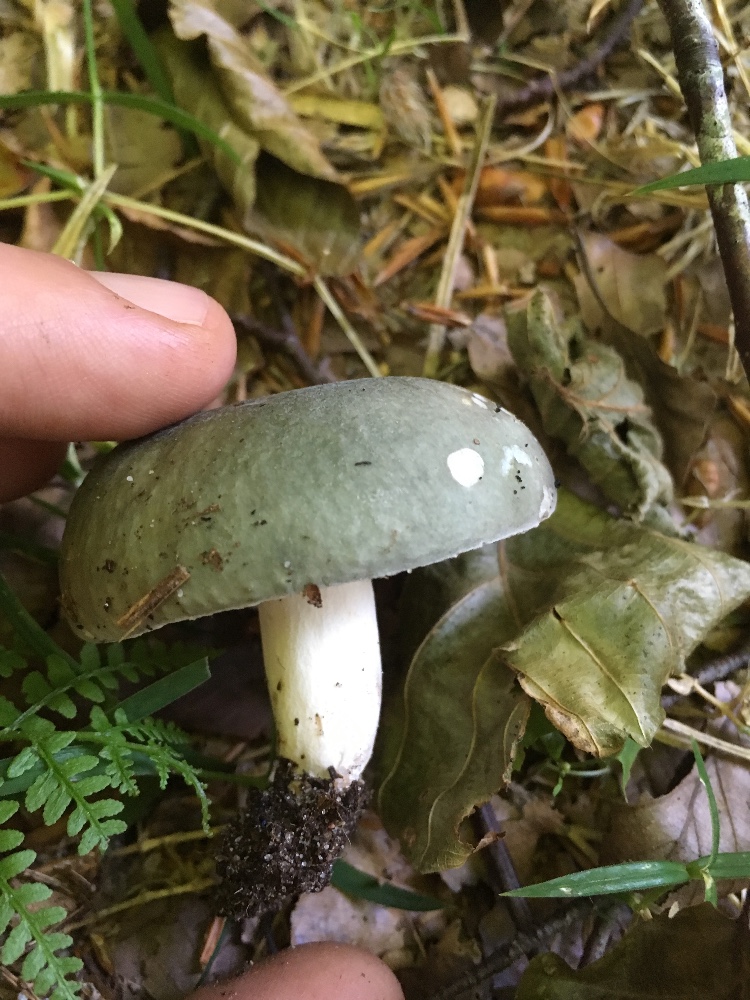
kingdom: Fungi
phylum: Basidiomycota
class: Agaricomycetes
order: Russulales
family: Russulaceae
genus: Russula
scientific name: Russula cyanoxantha
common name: broget skørhat
